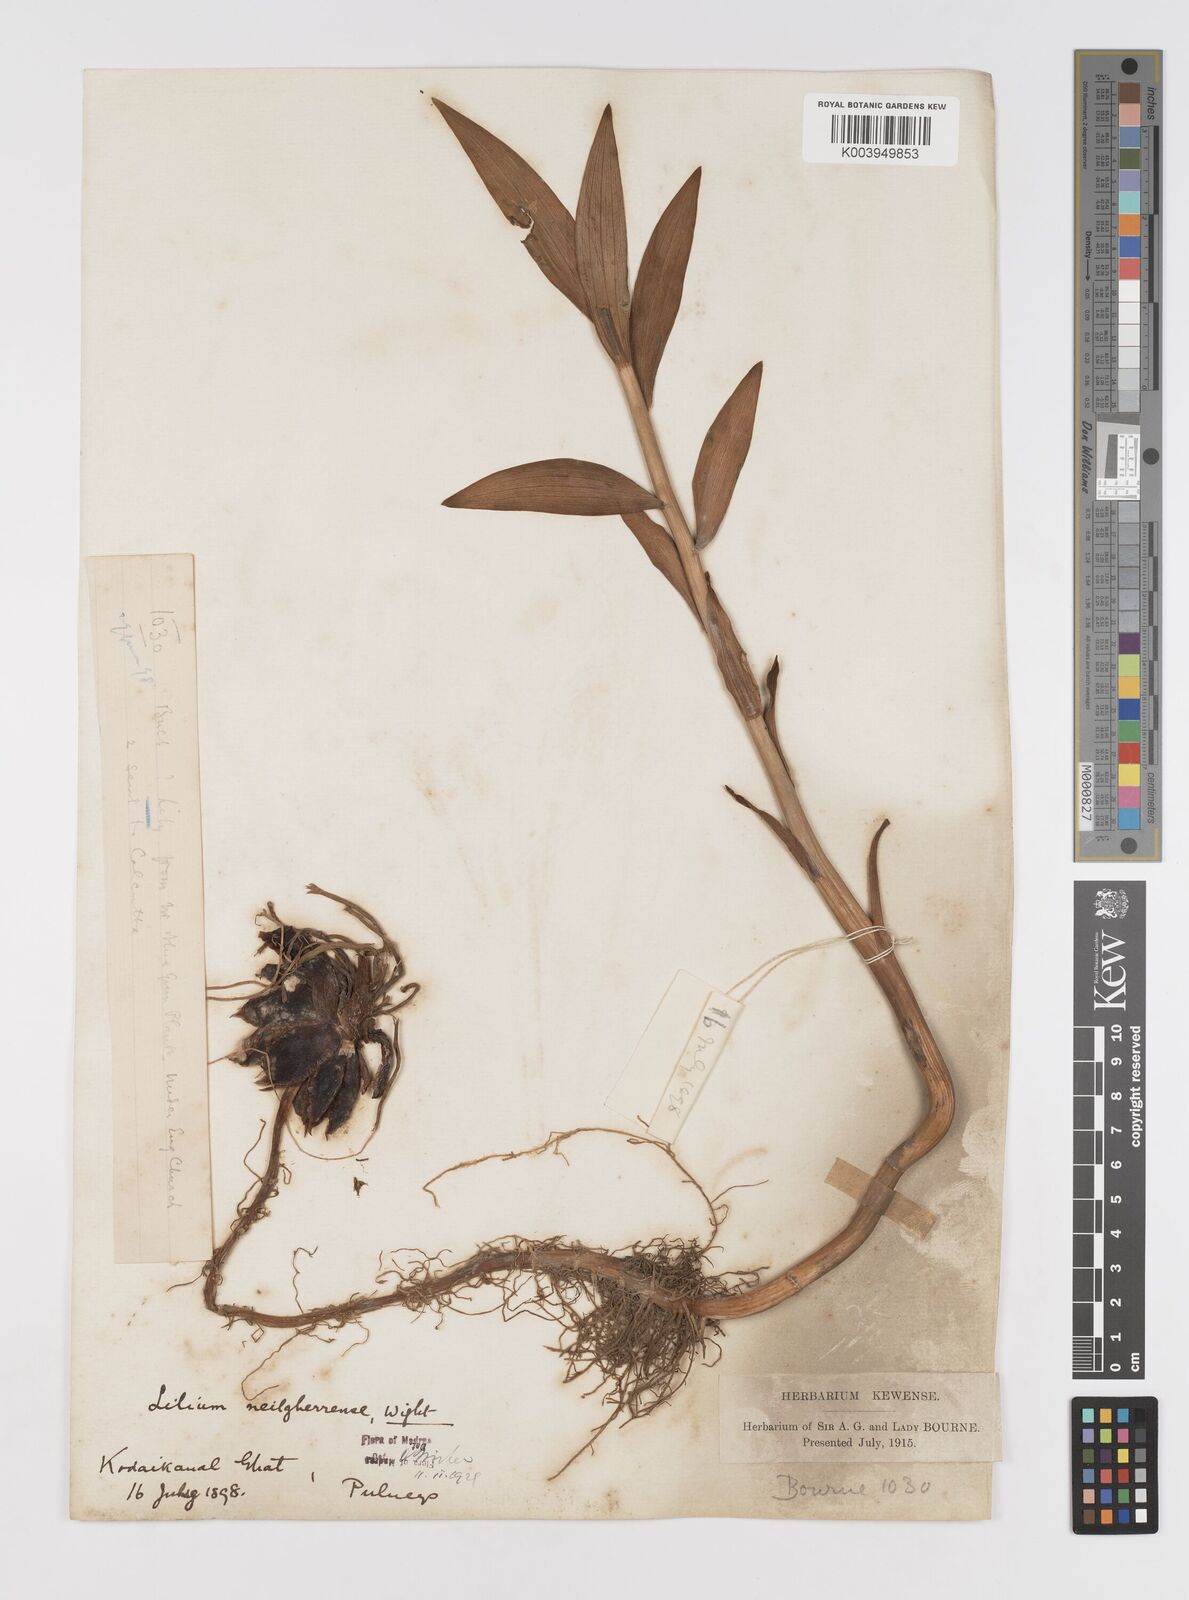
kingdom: Plantae
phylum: Tracheophyta
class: Liliopsida
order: Liliales
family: Liliaceae
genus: Lilium
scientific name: Lilium wallichianum
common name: Wallich's lily
